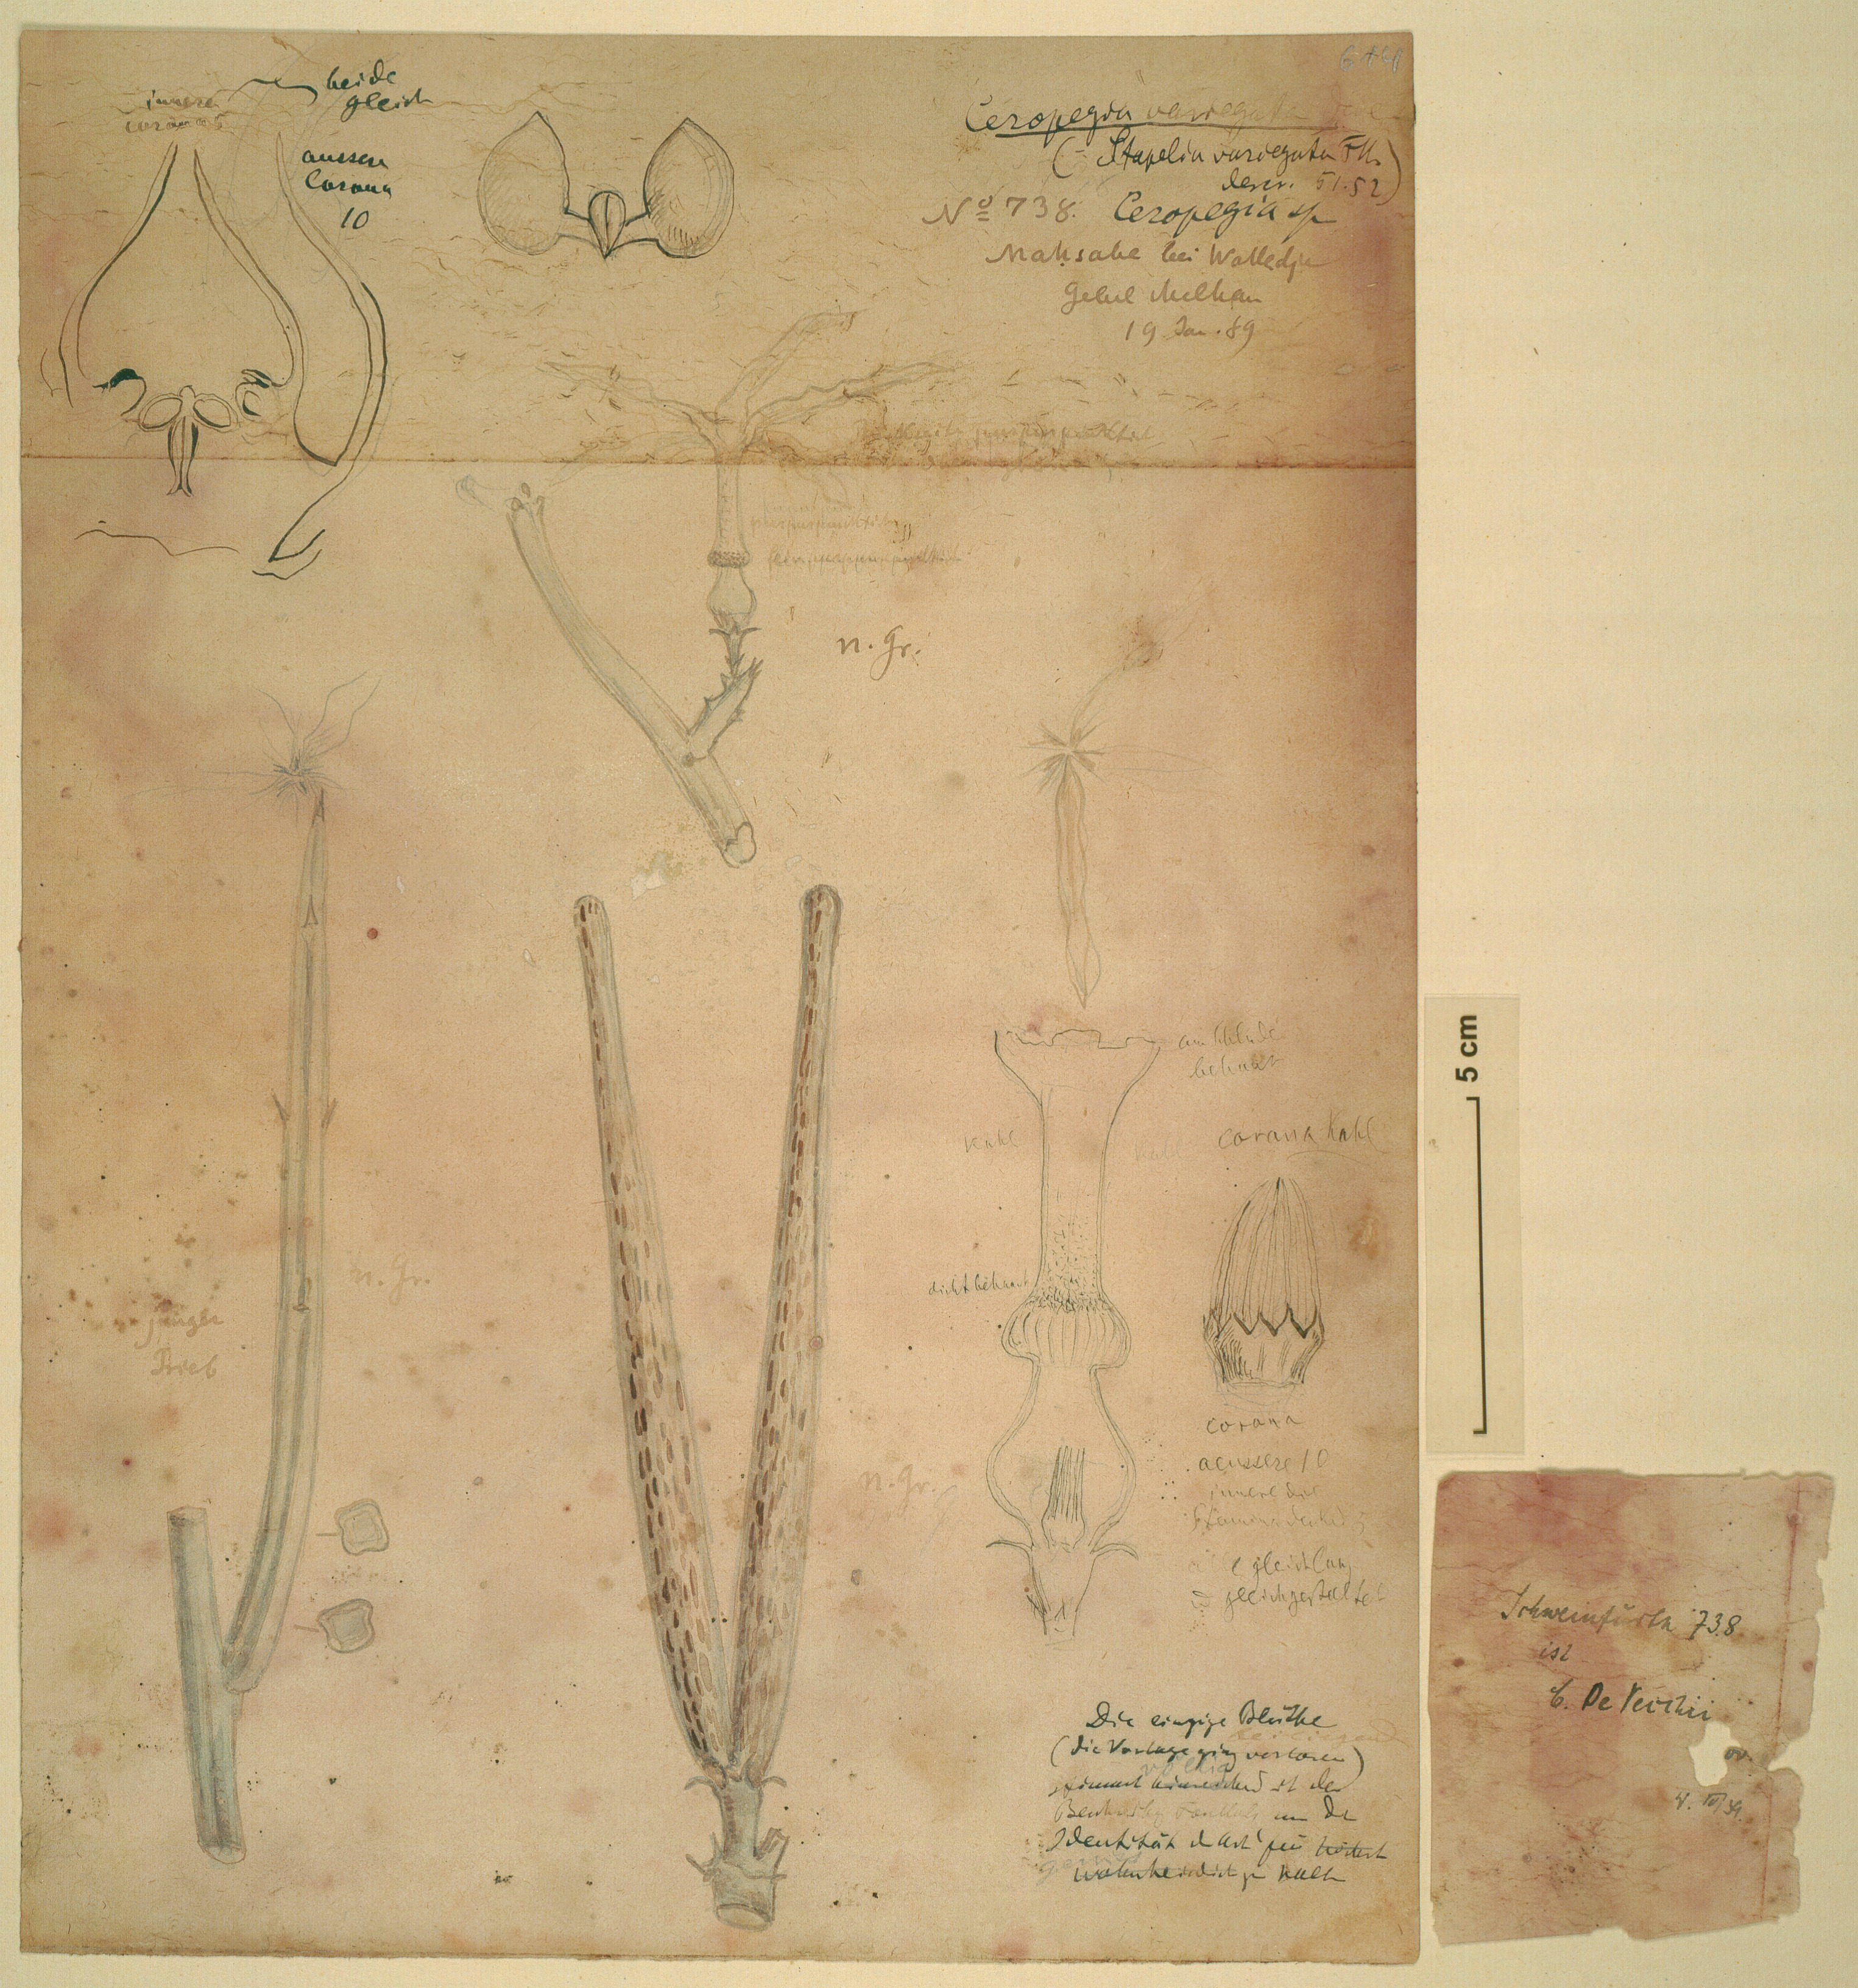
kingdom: Plantae
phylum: Tracheophyta
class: Magnoliopsida
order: Gentianales
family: Apocynaceae
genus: Ceropegia
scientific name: Ceropegia variegata
